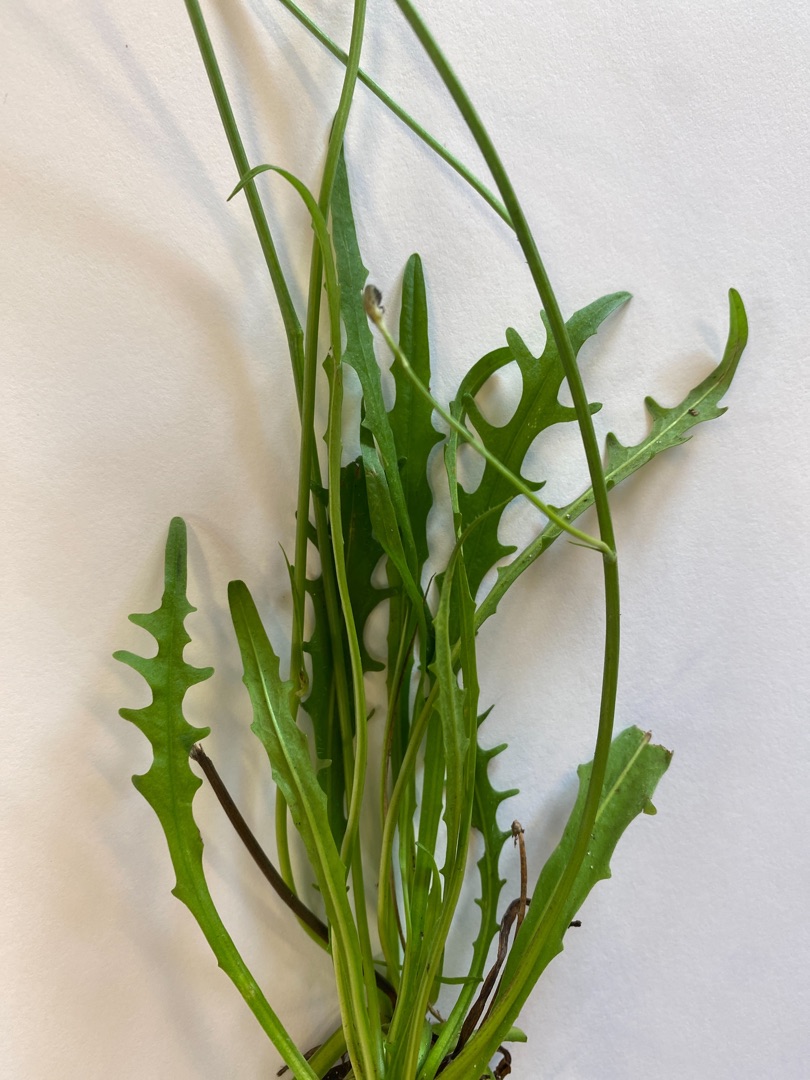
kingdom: Plantae
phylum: Tracheophyta
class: Magnoliopsida
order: Asterales
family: Asteraceae
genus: Scorzoneroides
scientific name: Scorzoneroides autumnalis
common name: Høst-borst
